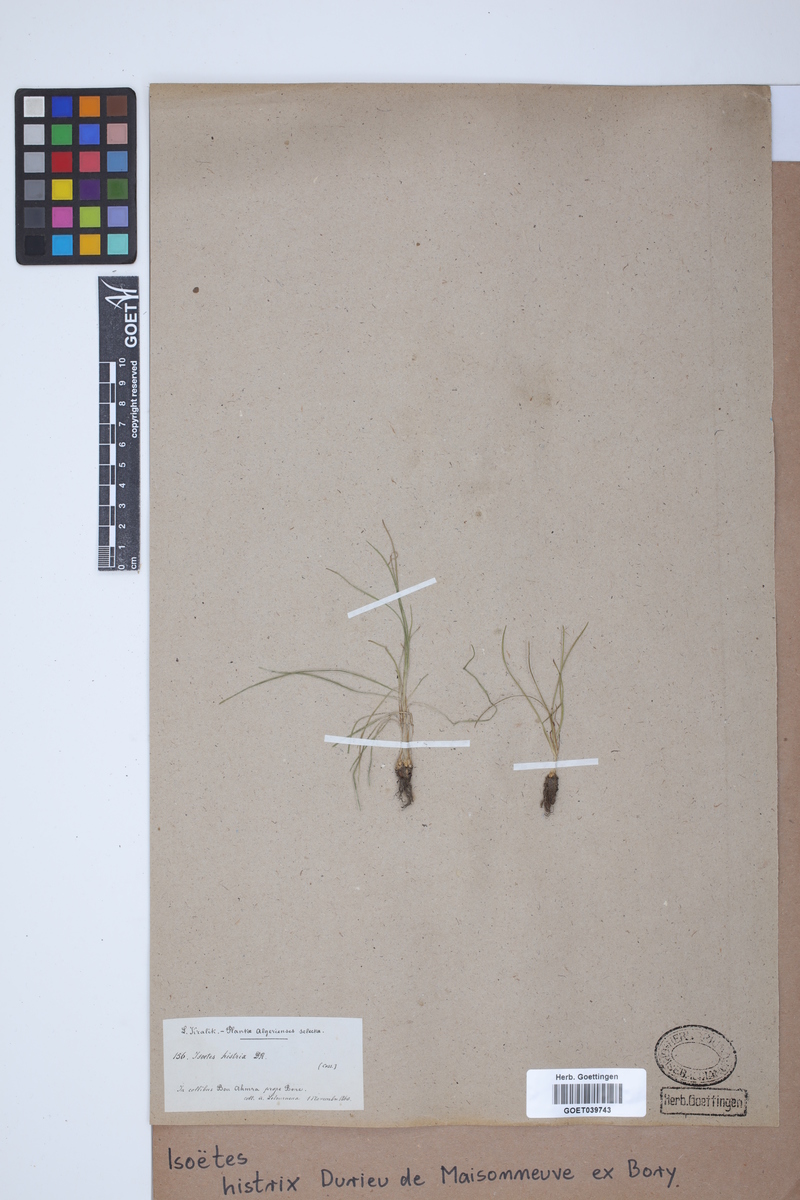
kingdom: Plantae
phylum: Tracheophyta
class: Lycopodiopsida
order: Isoetales
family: Isoetaceae
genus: Isoetes
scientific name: Isoetes histrix
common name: Land quillwort
